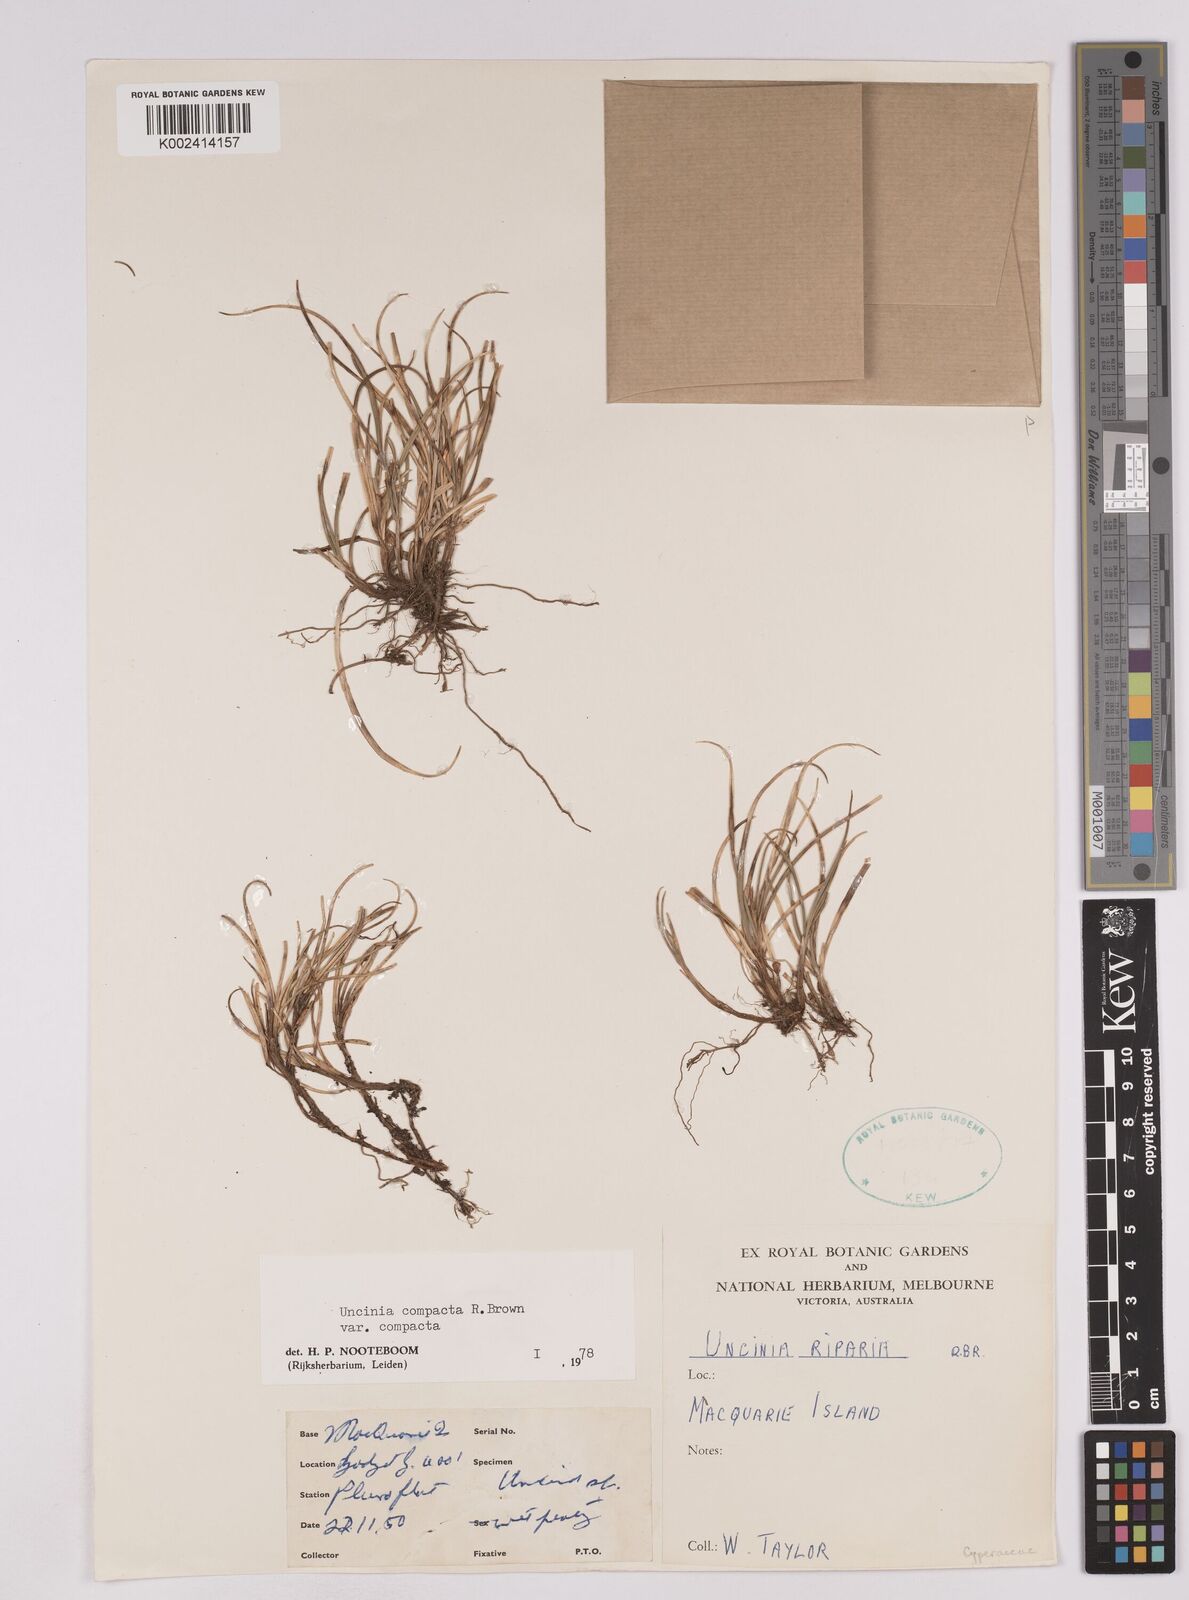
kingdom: Plantae
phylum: Tracheophyta
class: Liliopsida
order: Poales
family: Cyperaceae
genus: Carex
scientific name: Carex austrocompacta
